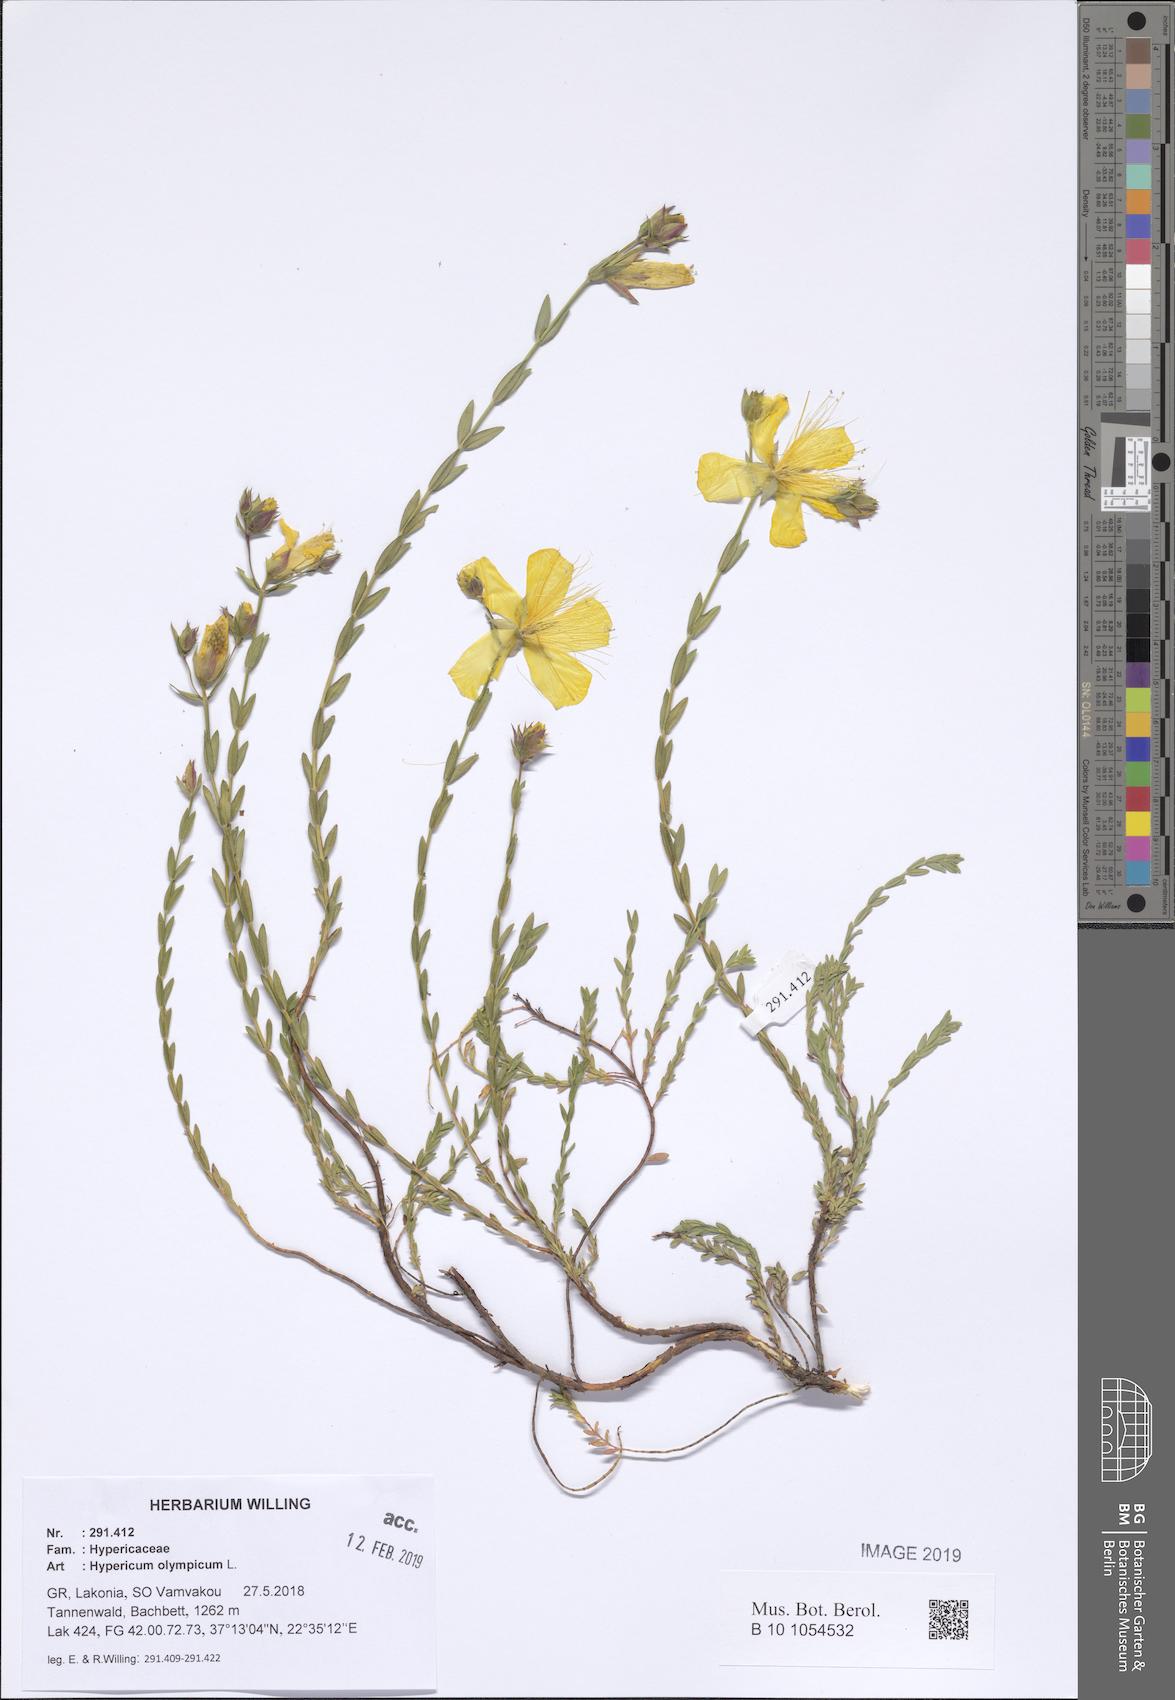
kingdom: Plantae
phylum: Tracheophyta
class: Magnoliopsida
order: Malpighiales
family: Hypericaceae
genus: Hypericum
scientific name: Hypericum olympicum
